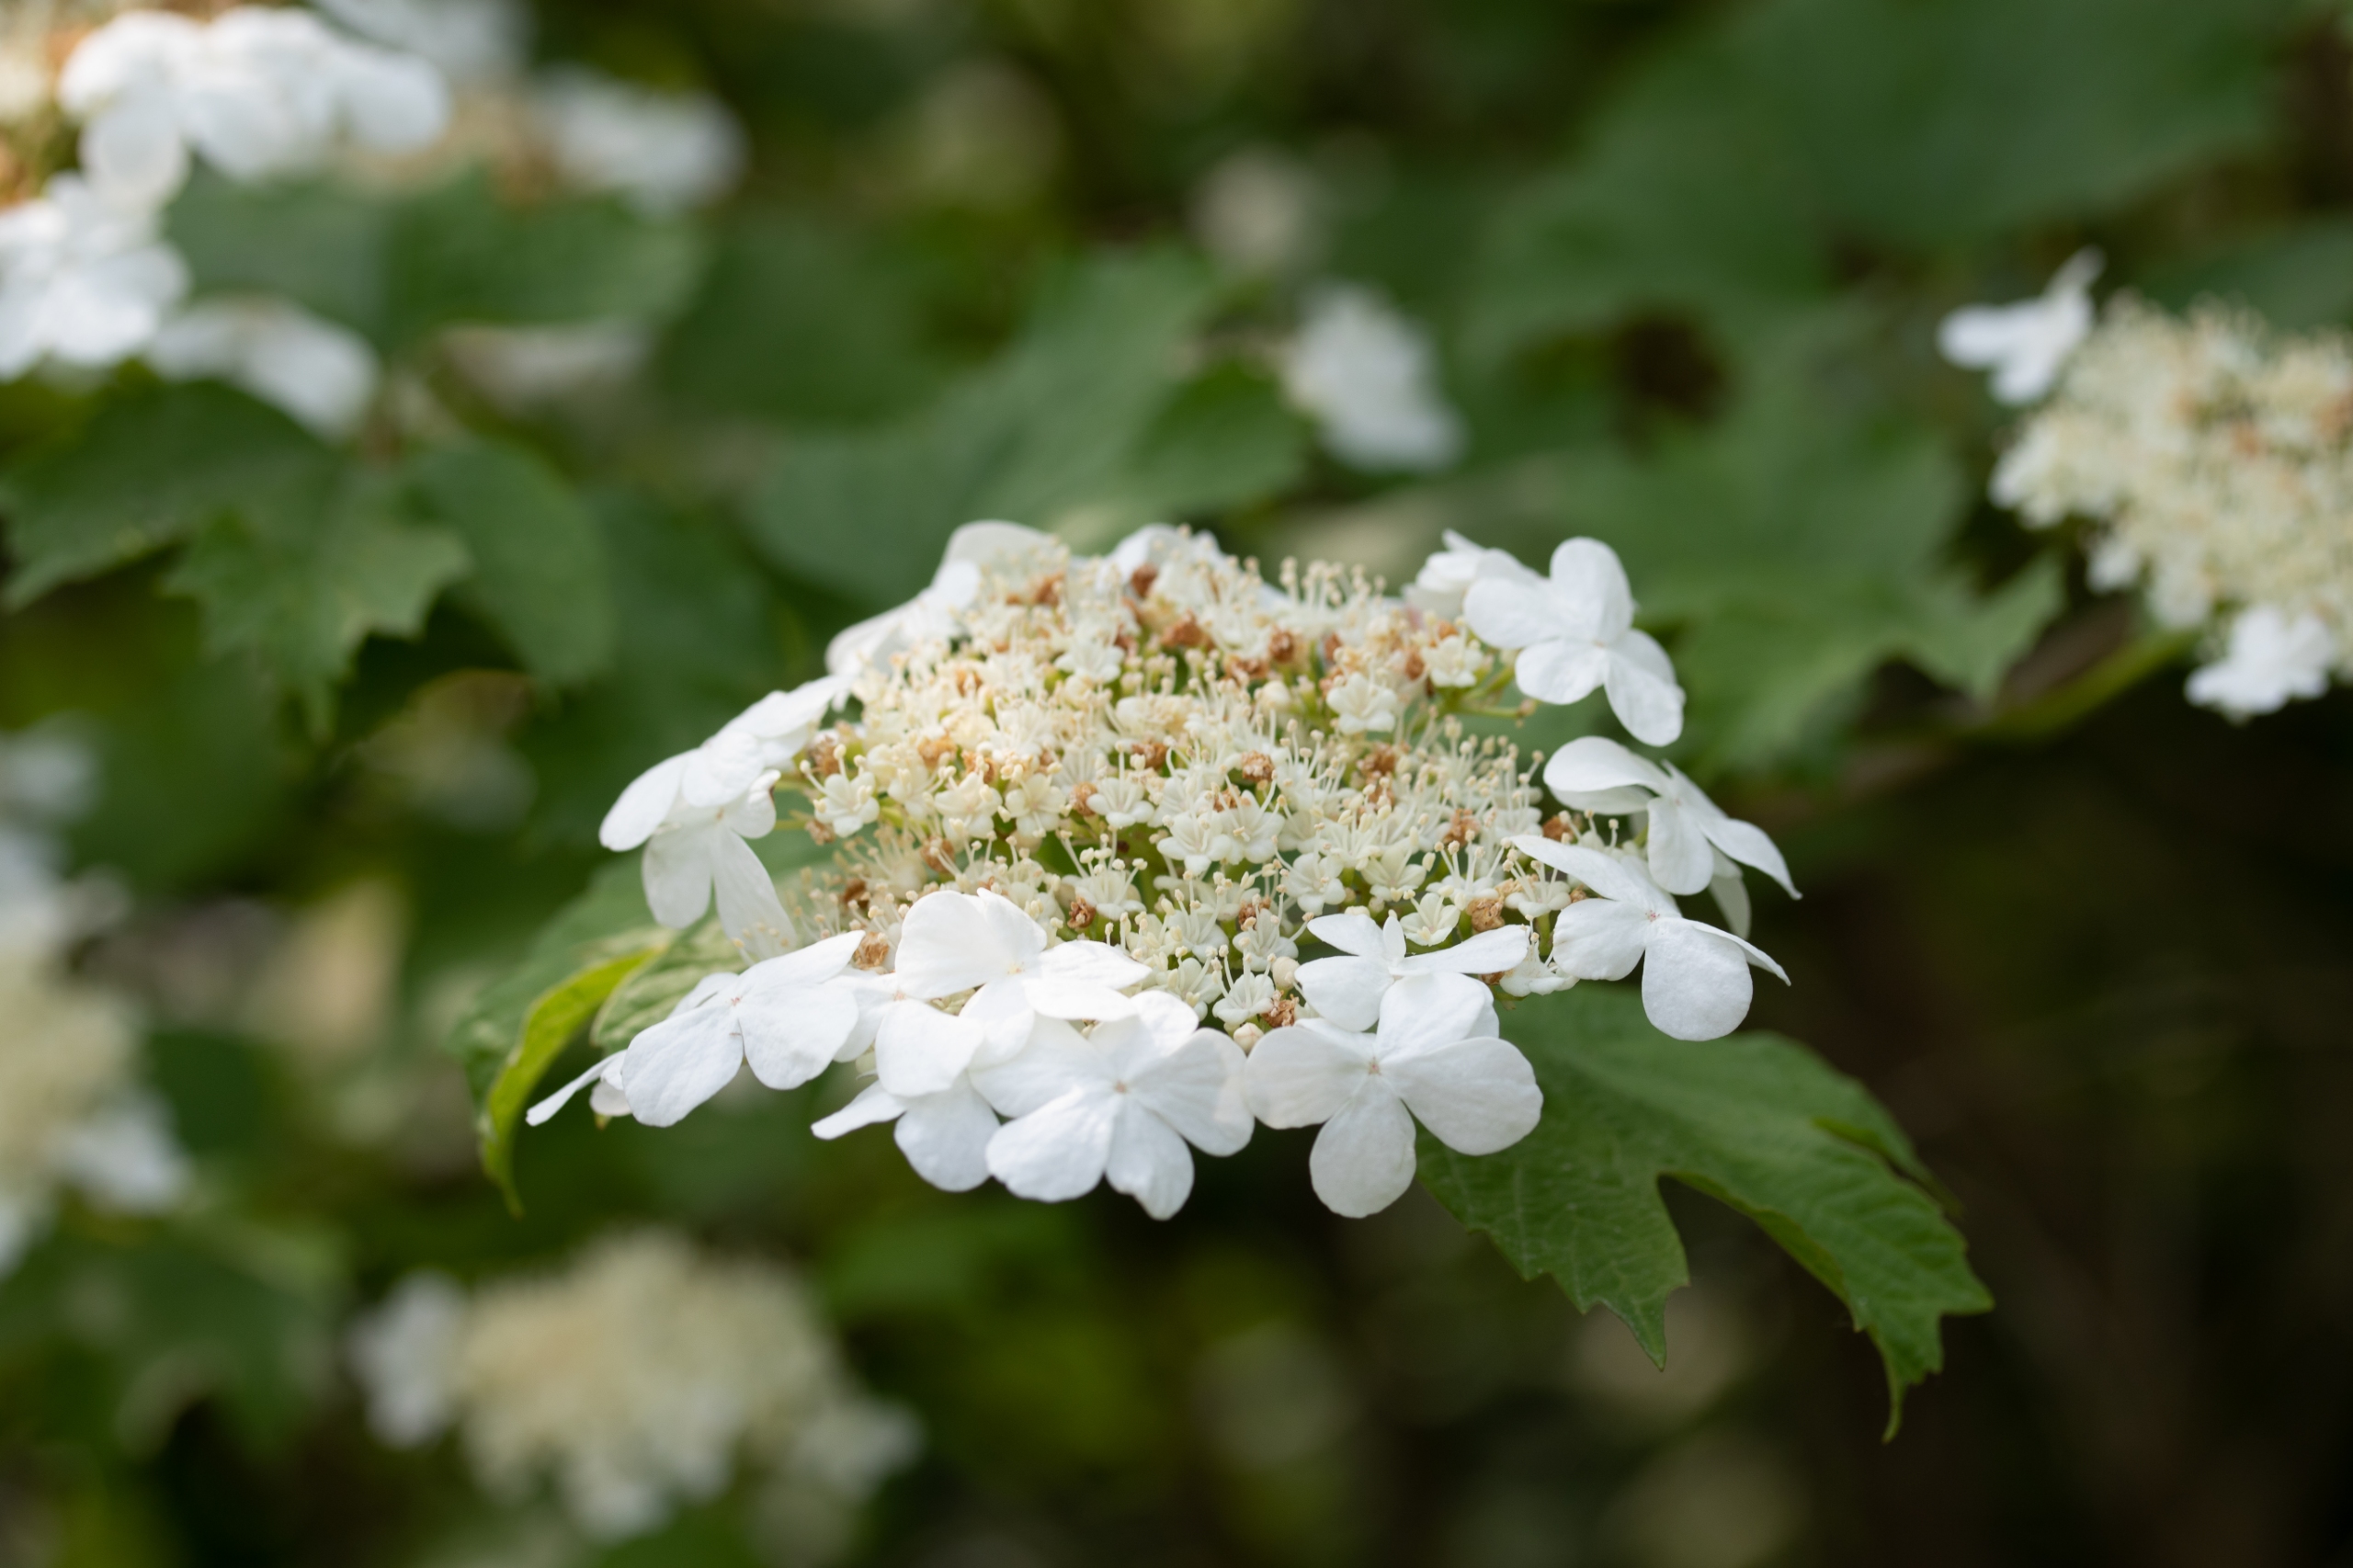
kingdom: Plantae
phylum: Tracheophyta
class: Magnoliopsida
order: Dipsacales
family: Viburnaceae
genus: Viburnum
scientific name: Viburnum opulus
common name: Kvalkved
